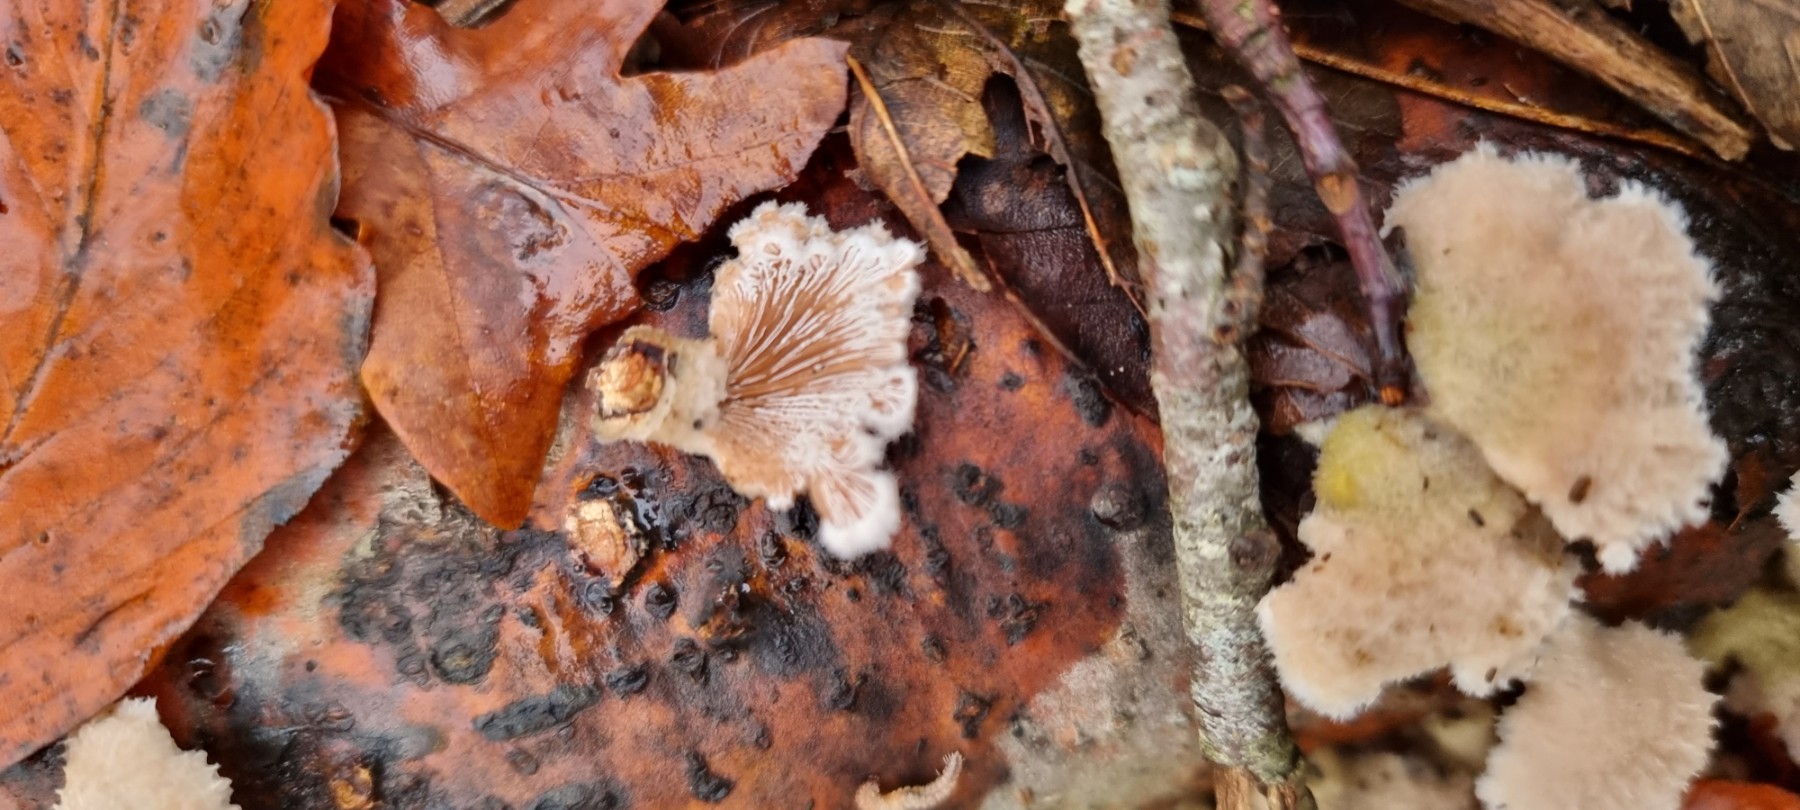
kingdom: Fungi
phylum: Basidiomycota
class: Agaricomycetes
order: Agaricales
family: Schizophyllaceae
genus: Schizophyllum
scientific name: Schizophyllum commune
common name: kløvblad
